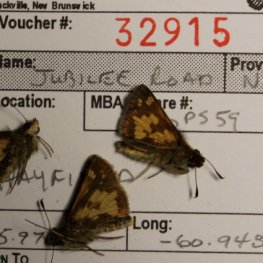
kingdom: Animalia
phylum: Arthropoda
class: Insecta
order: Lepidoptera
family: Hesperiidae
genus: Polites
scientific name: Polites coras
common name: Peck's Skipper
